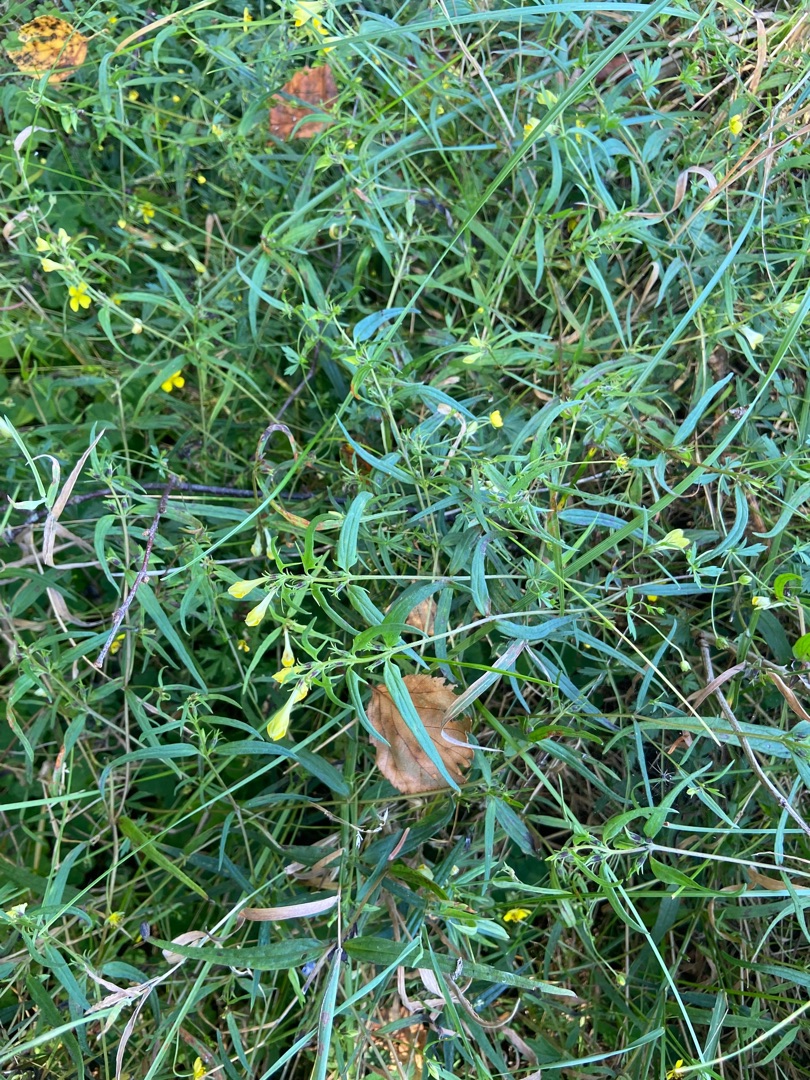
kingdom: Plantae
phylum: Tracheophyta
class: Magnoliopsida
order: Lamiales
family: Orobanchaceae
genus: Melampyrum
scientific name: Melampyrum pratense
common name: Almindelig kohvede
